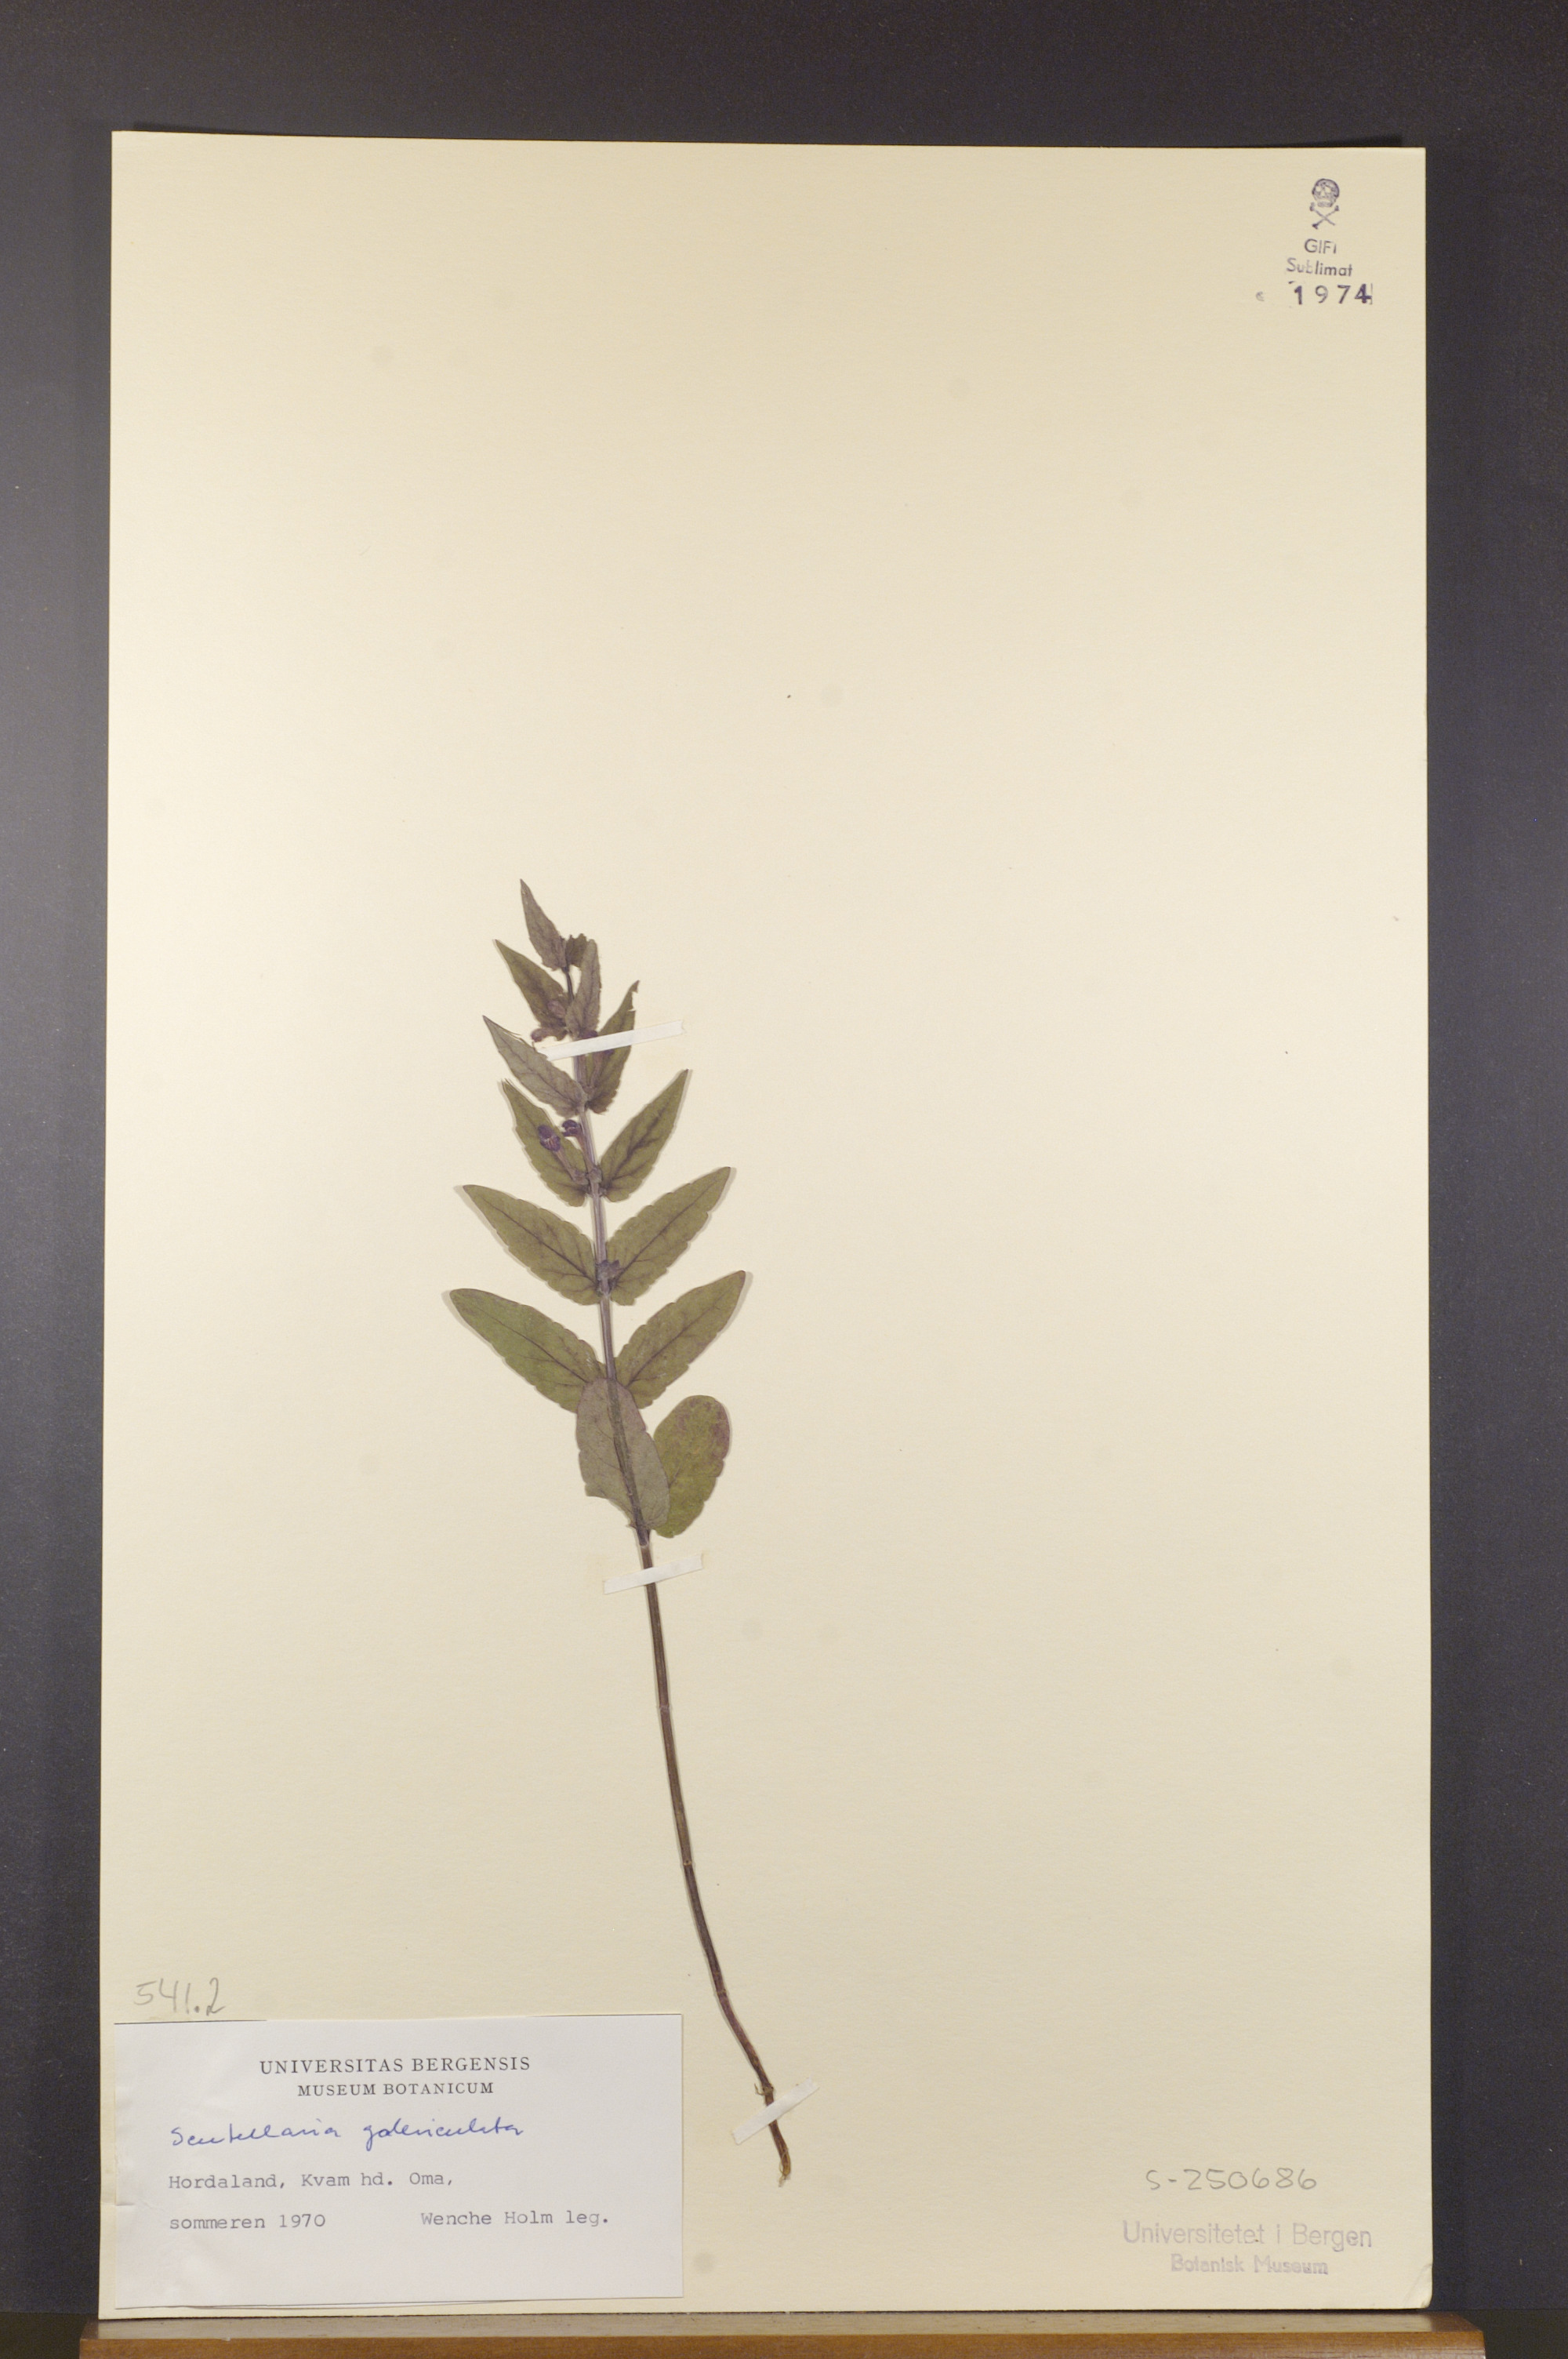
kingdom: Plantae
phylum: Tracheophyta
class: Magnoliopsida
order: Lamiales
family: Lamiaceae
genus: Scutellaria
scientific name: Scutellaria galericulata
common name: Skullcap
